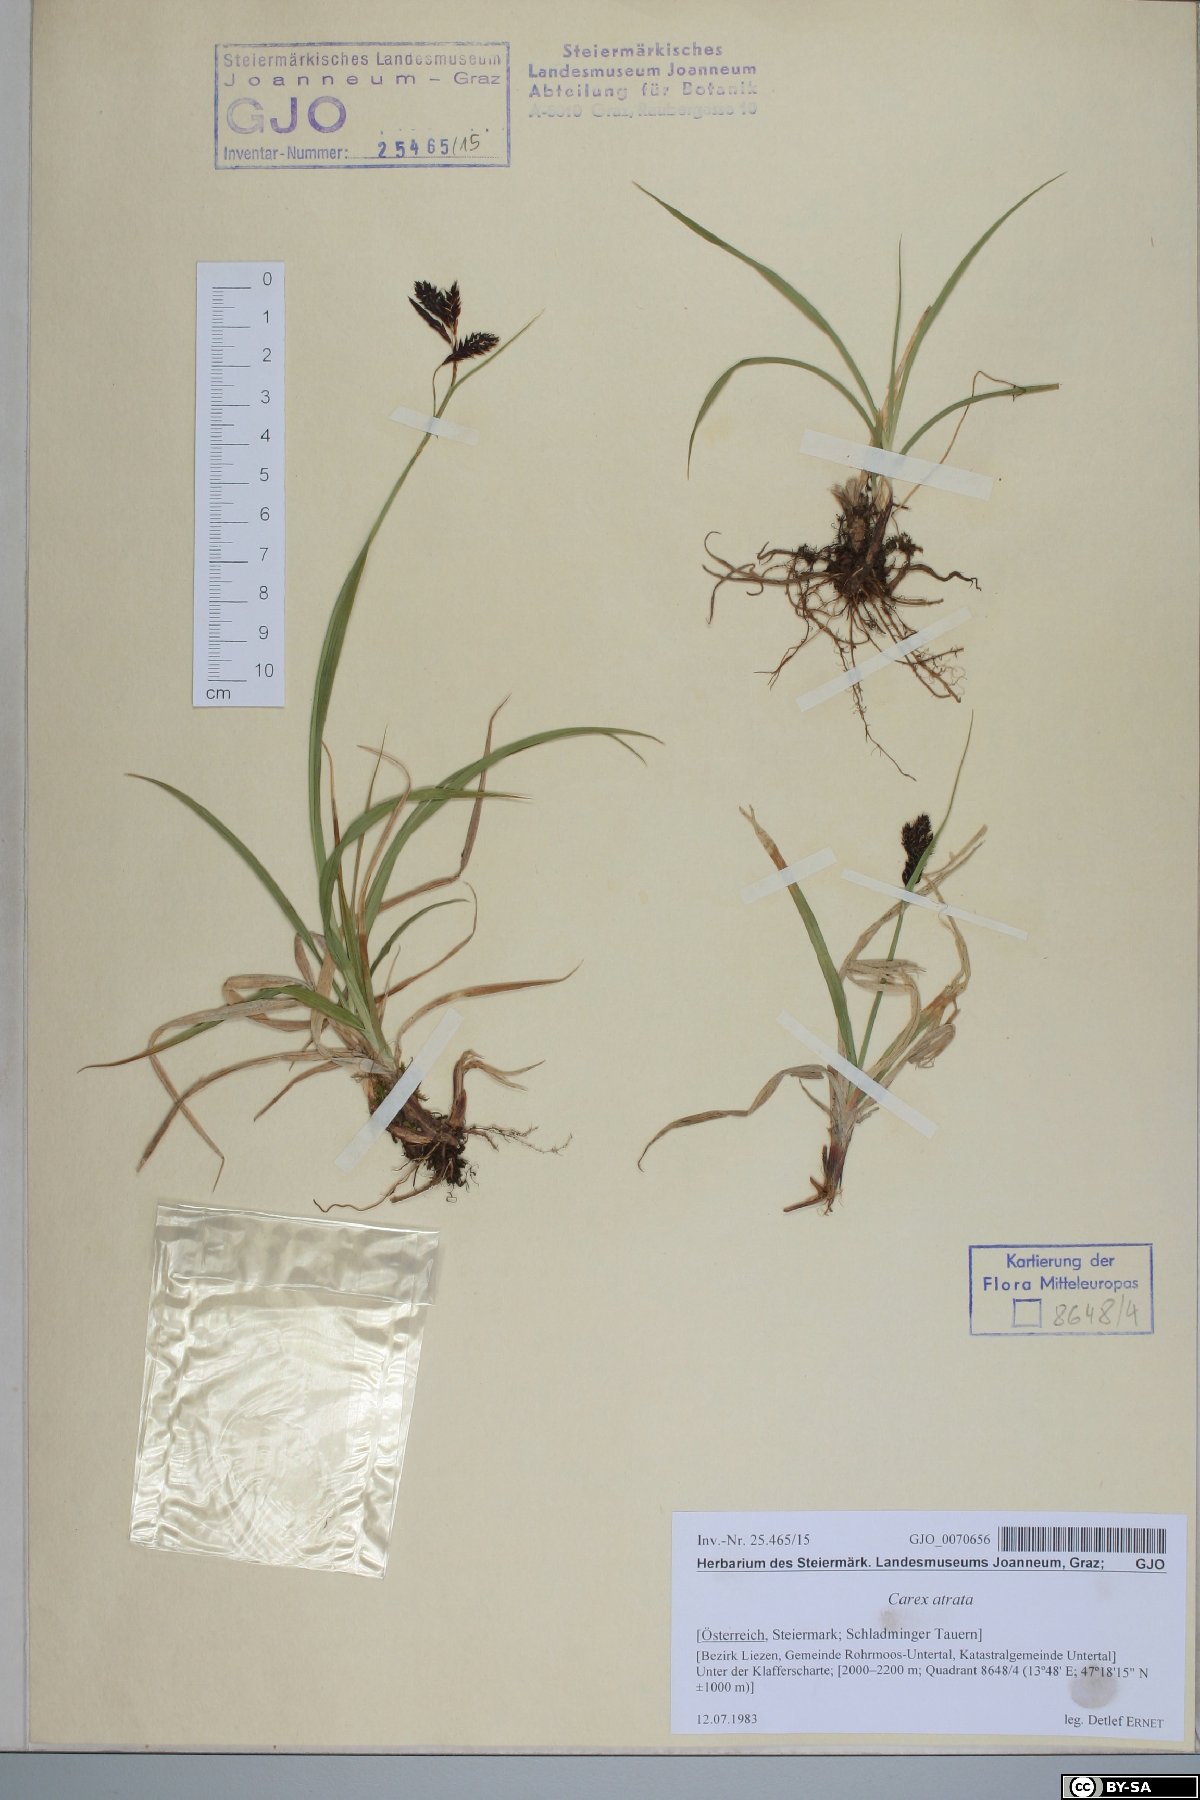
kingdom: Plantae
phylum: Tracheophyta
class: Liliopsida
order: Poales
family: Cyperaceae
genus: Carex
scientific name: Carex atrata
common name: Black alpine sedge
